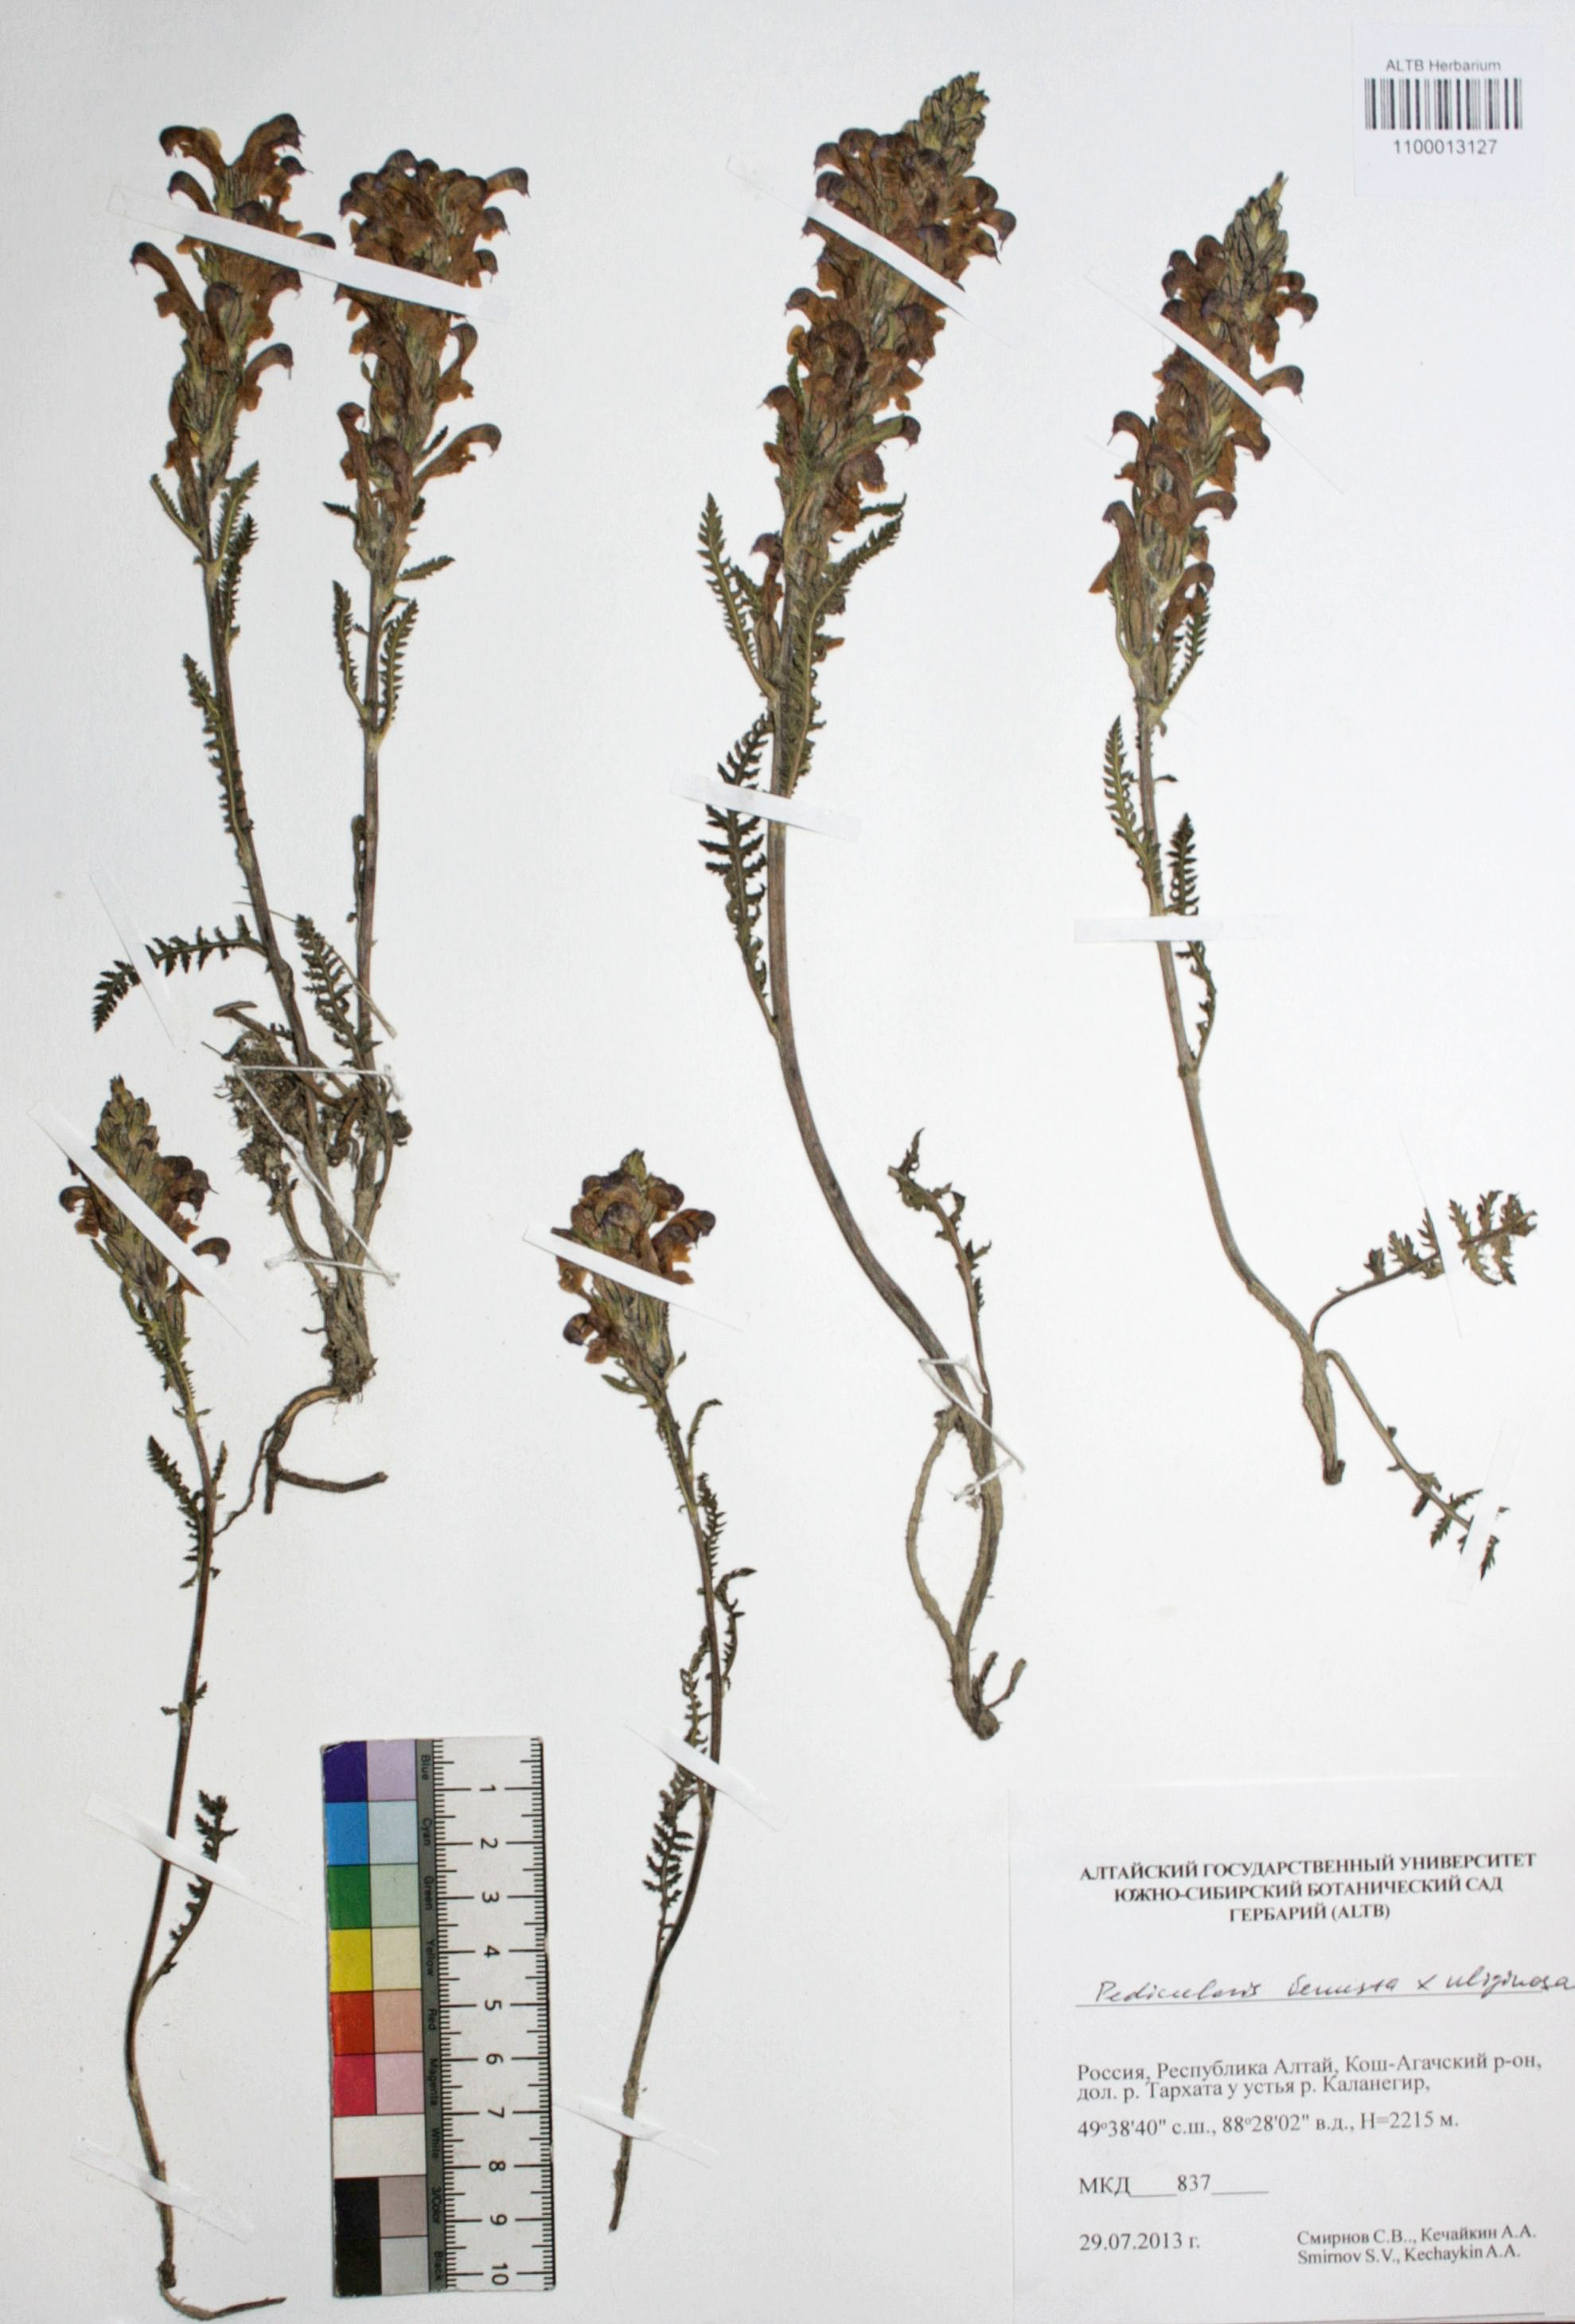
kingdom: Plantae
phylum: Tracheophyta
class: Magnoliopsida
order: Lamiales
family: Orobanchaceae
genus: Pedicularis
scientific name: Pedicularis venusta
